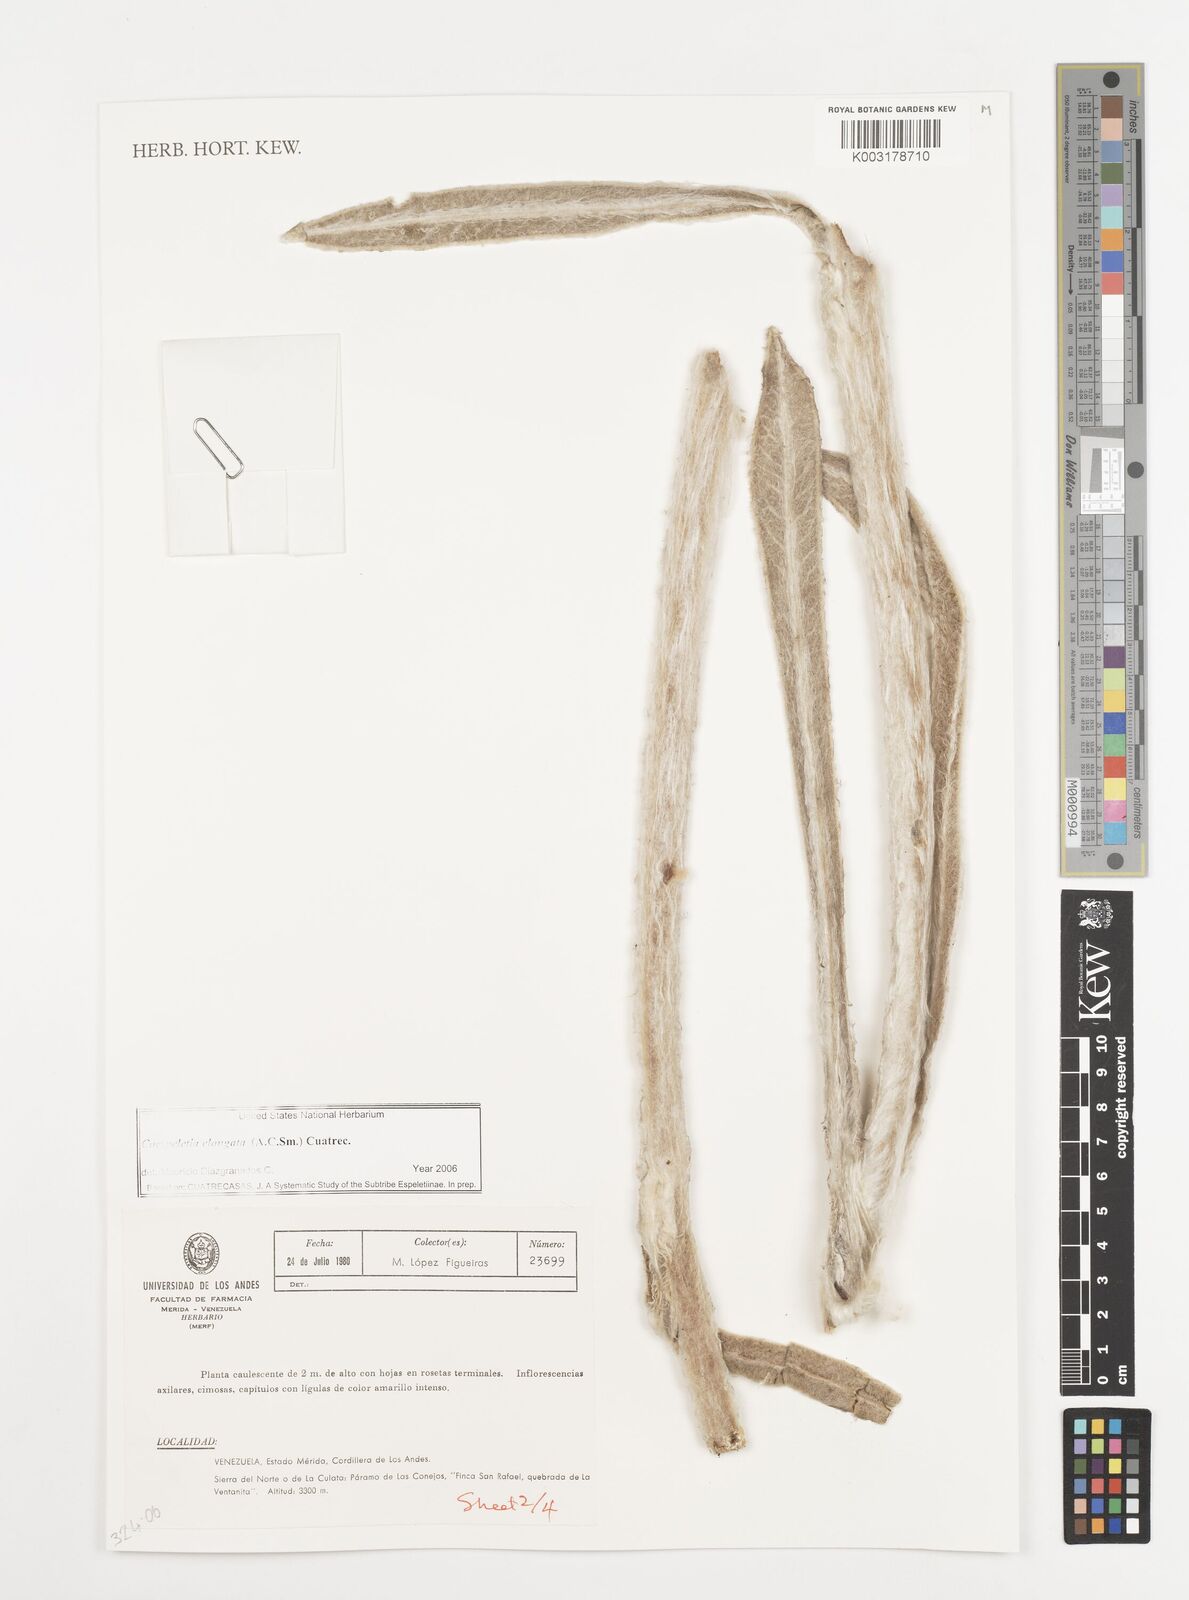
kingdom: Plantae
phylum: Tracheophyta
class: Magnoliopsida
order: Asterales
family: Asteraceae
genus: Espeletia
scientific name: Espeletia elongata
